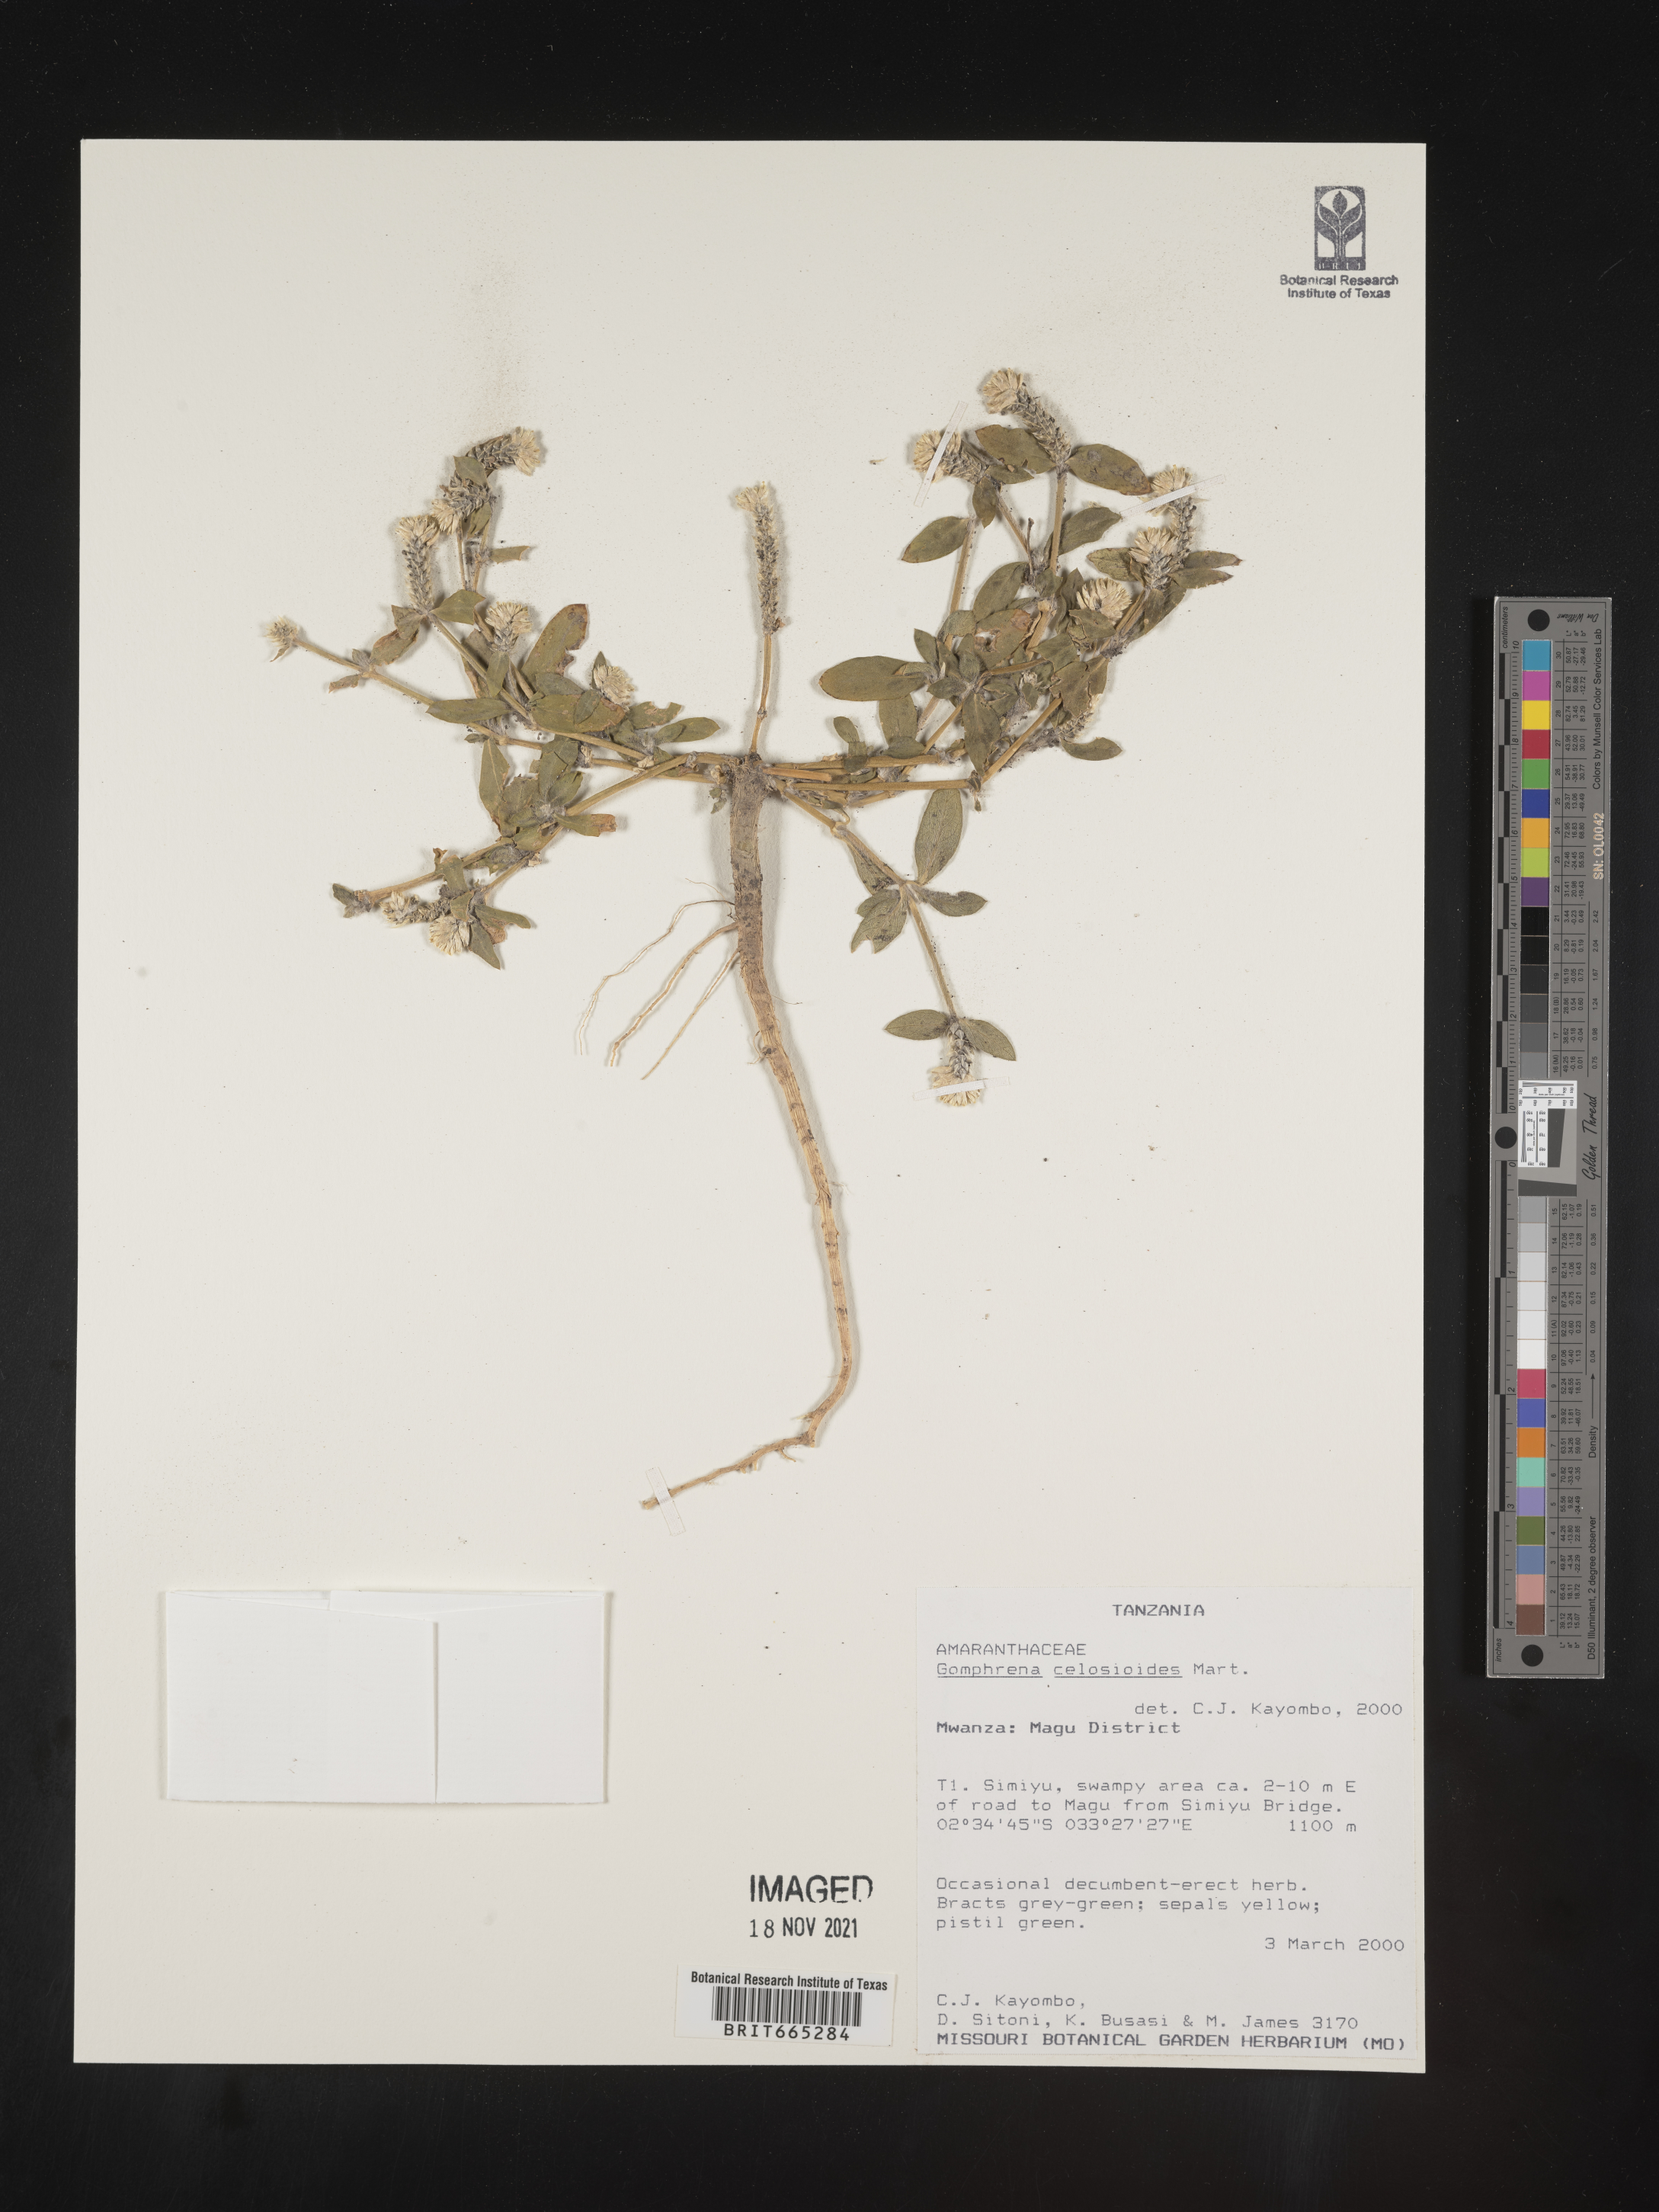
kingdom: Plantae
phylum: Tracheophyta
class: Magnoliopsida
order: Caryophyllales
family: Amaranthaceae
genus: Gomphrena
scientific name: Gomphrena
